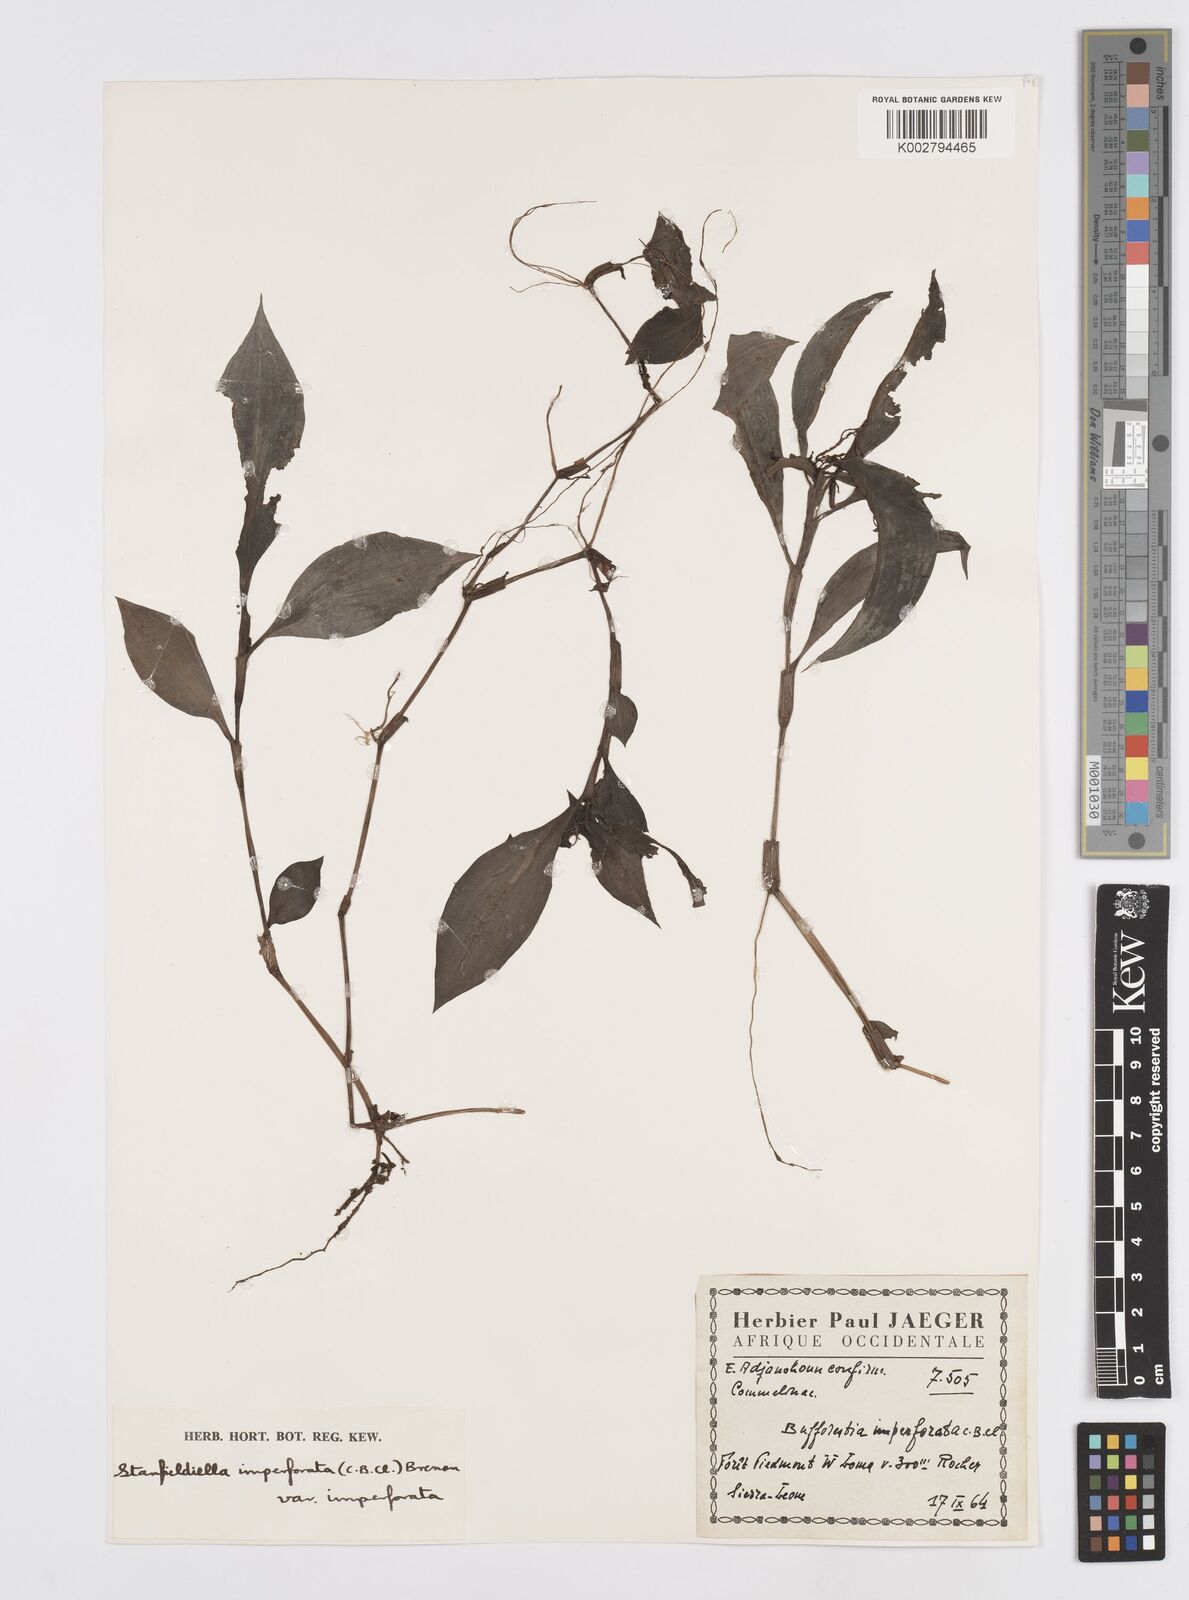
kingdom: Plantae
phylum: Tracheophyta
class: Liliopsida
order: Commelinales
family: Commelinaceae
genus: Stanfieldiella
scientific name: Stanfieldiella imperforata
